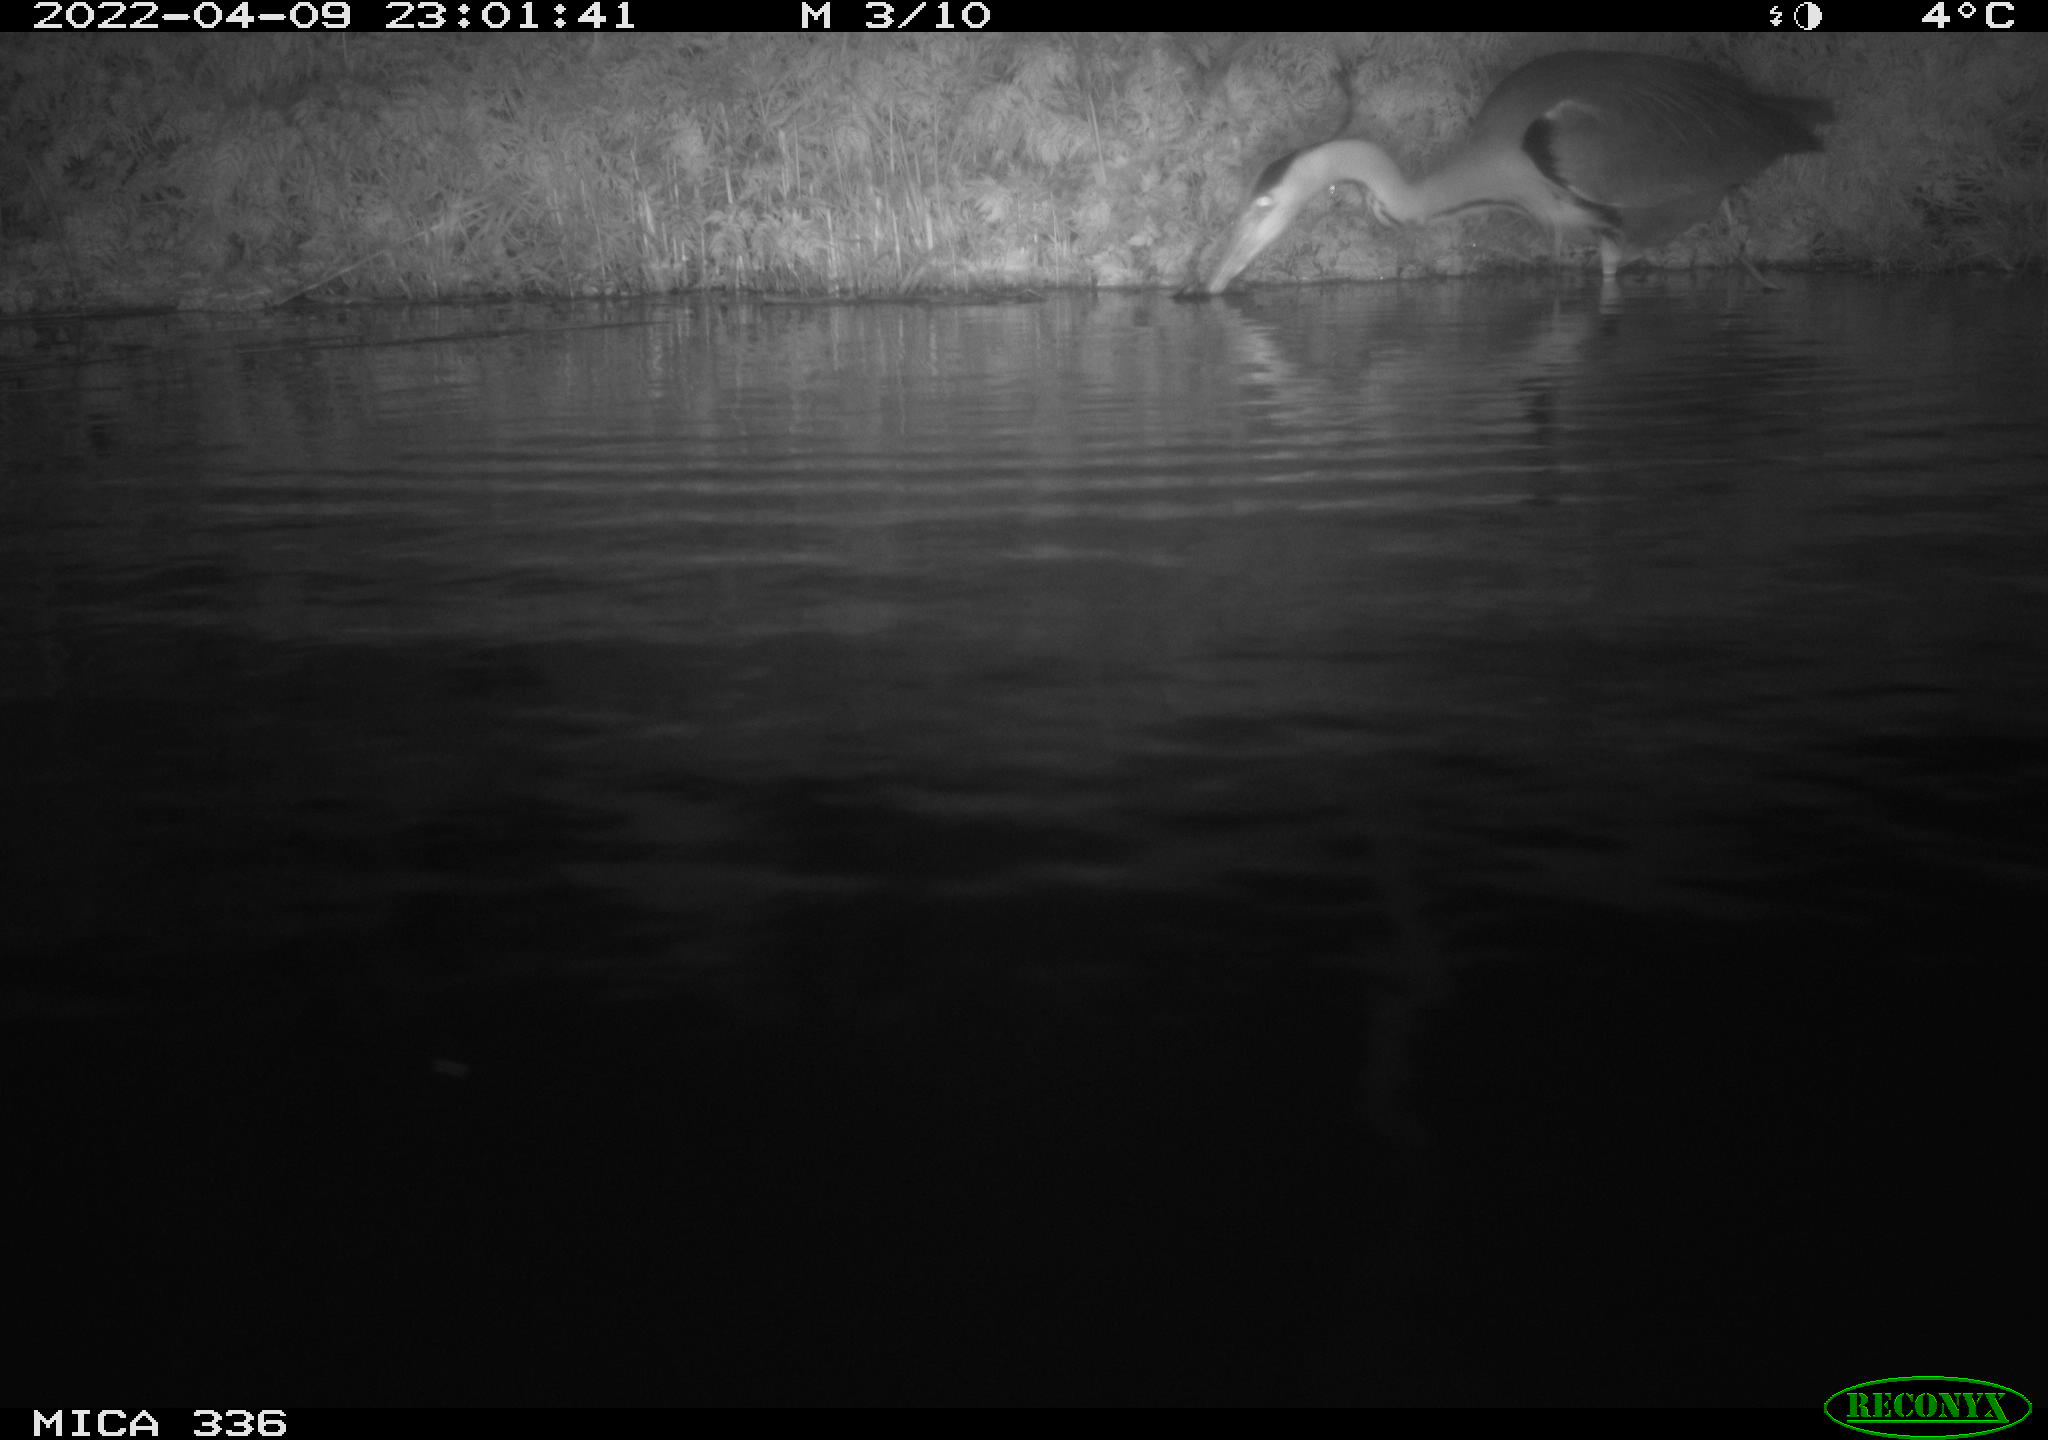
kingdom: Animalia
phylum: Chordata
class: Aves
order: Pelecaniformes
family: Ardeidae
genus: Ardea
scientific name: Ardea cinerea
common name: Grey heron
